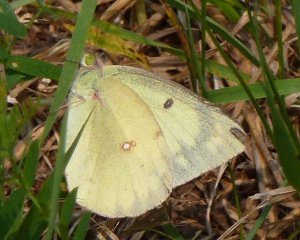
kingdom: Animalia
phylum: Arthropoda
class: Insecta
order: Lepidoptera
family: Pieridae
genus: Colias
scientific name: Colias philodice
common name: Clouded Sulphur
